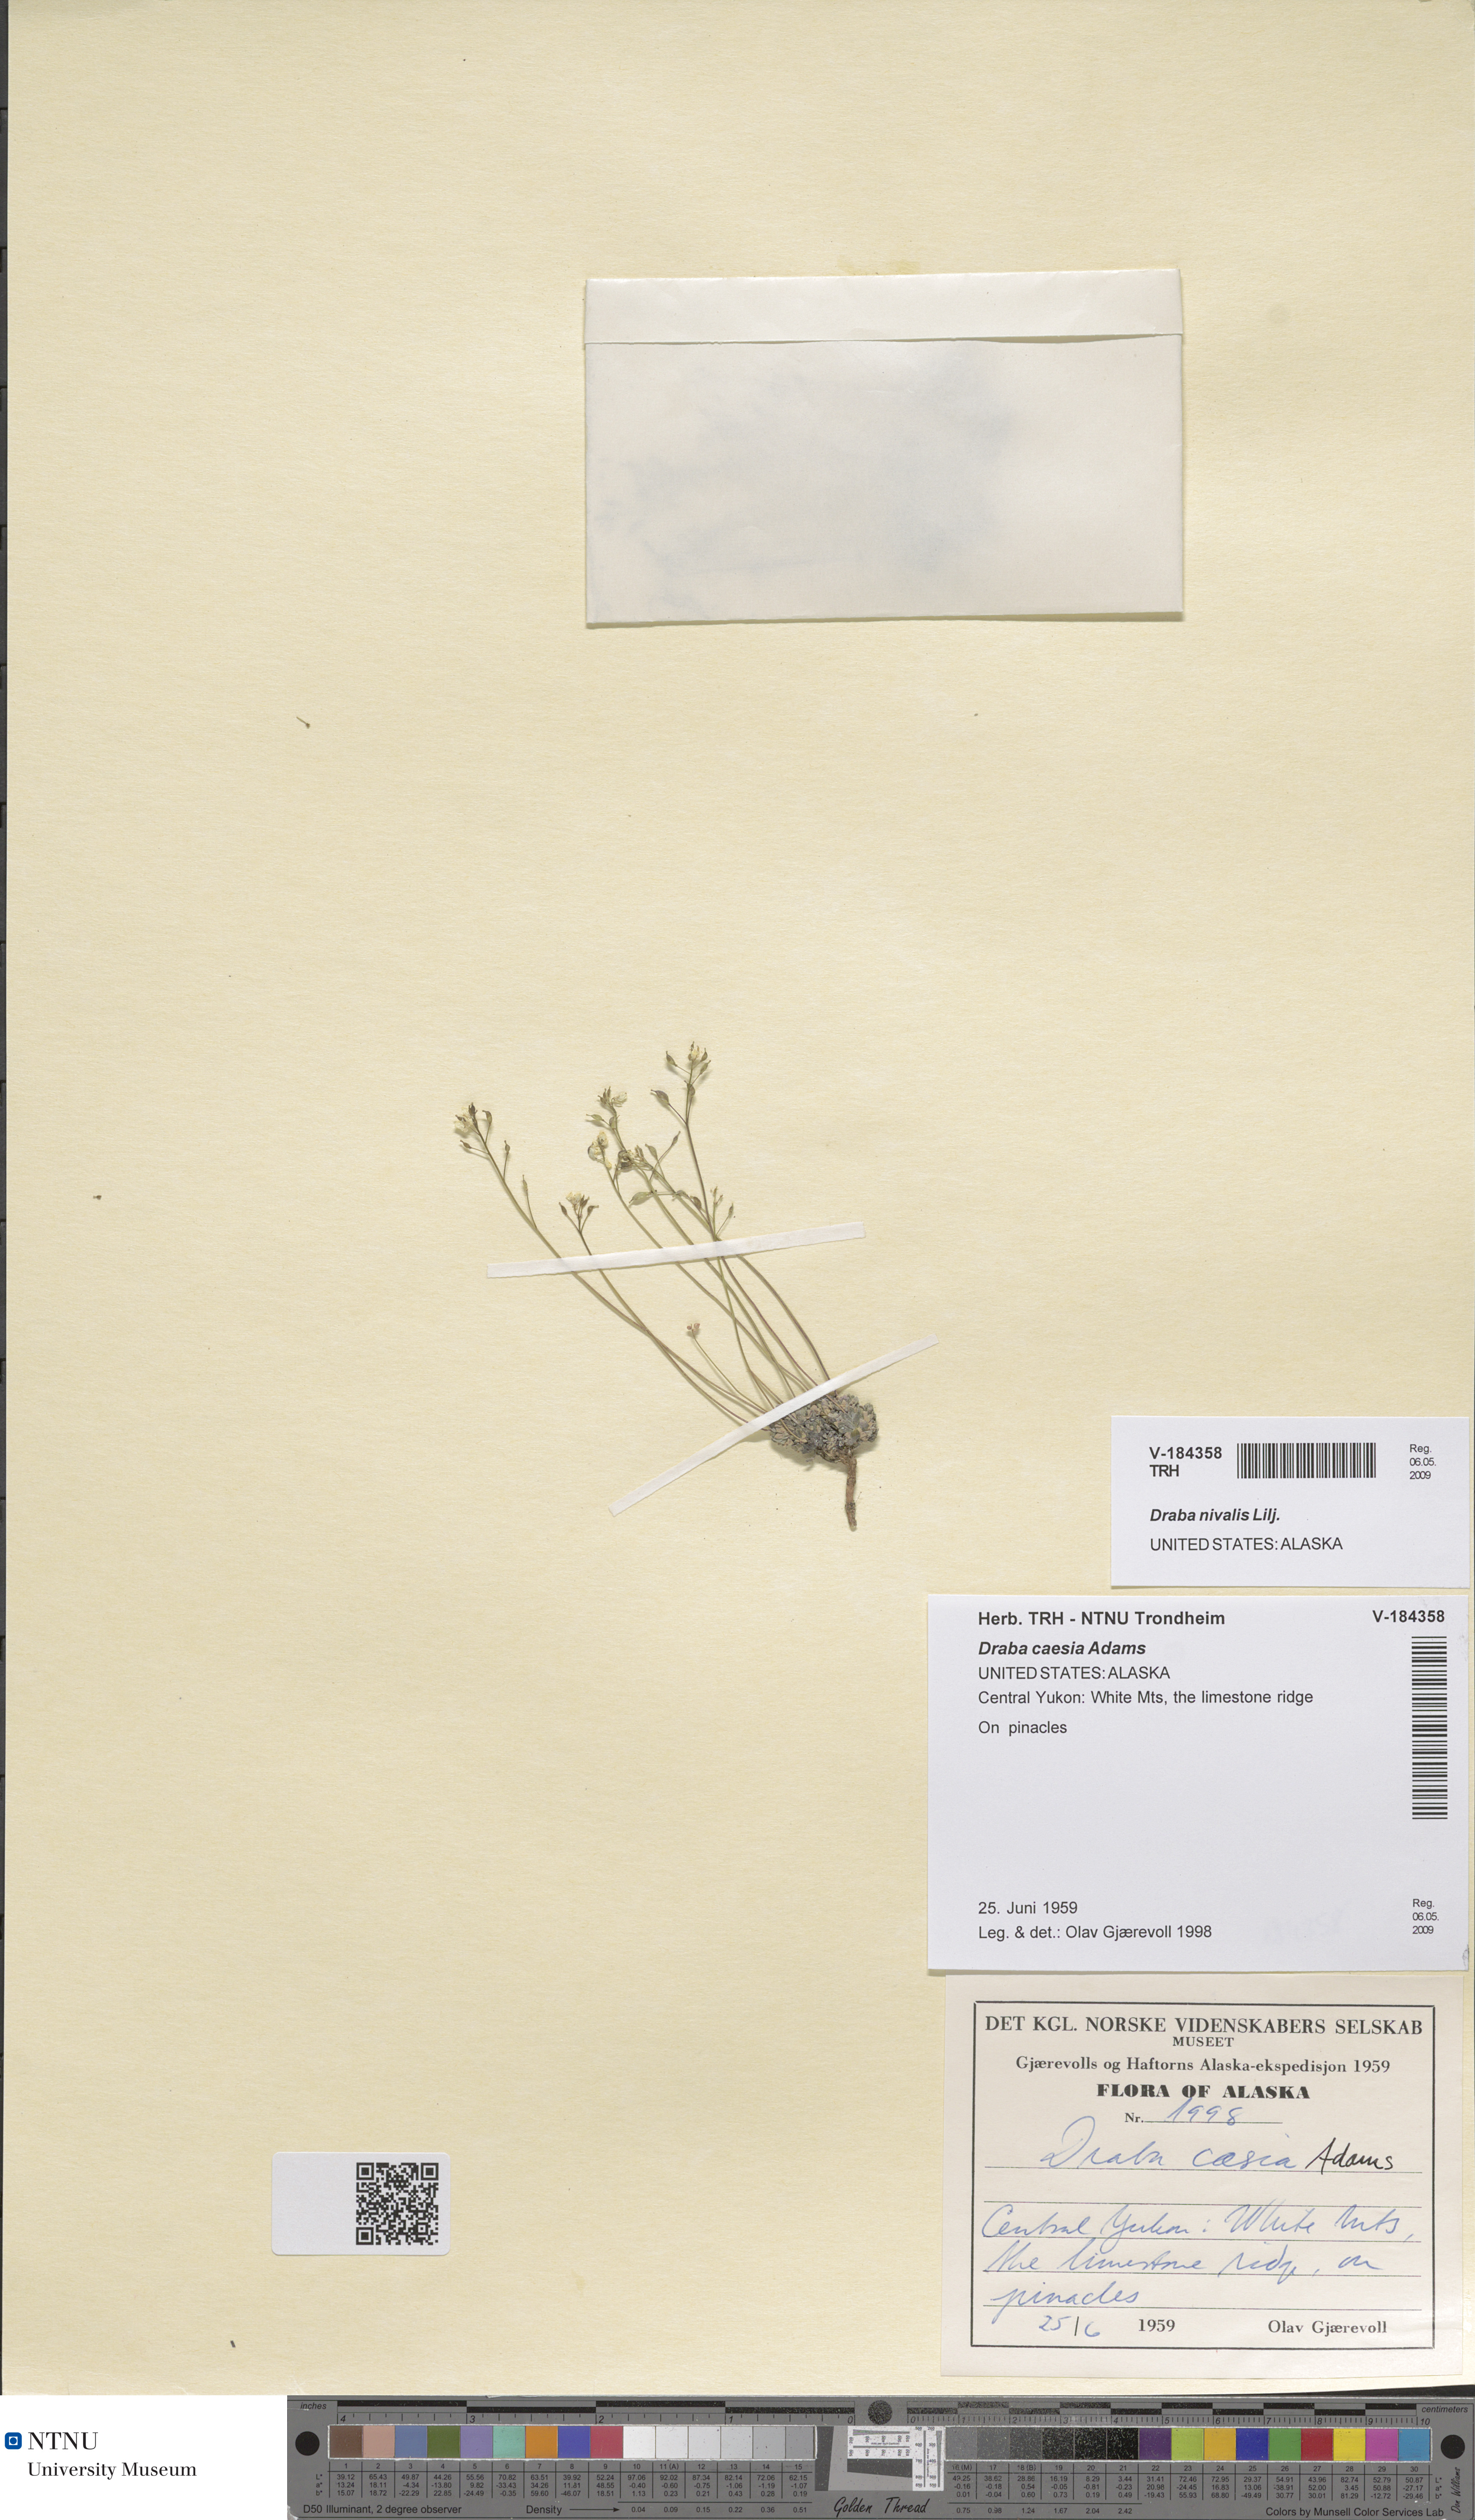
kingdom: Plantae
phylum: Tracheophyta
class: Magnoliopsida
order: Brassicales
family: Brassicaceae
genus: Draba
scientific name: Draba nivalis
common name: Snow draba
